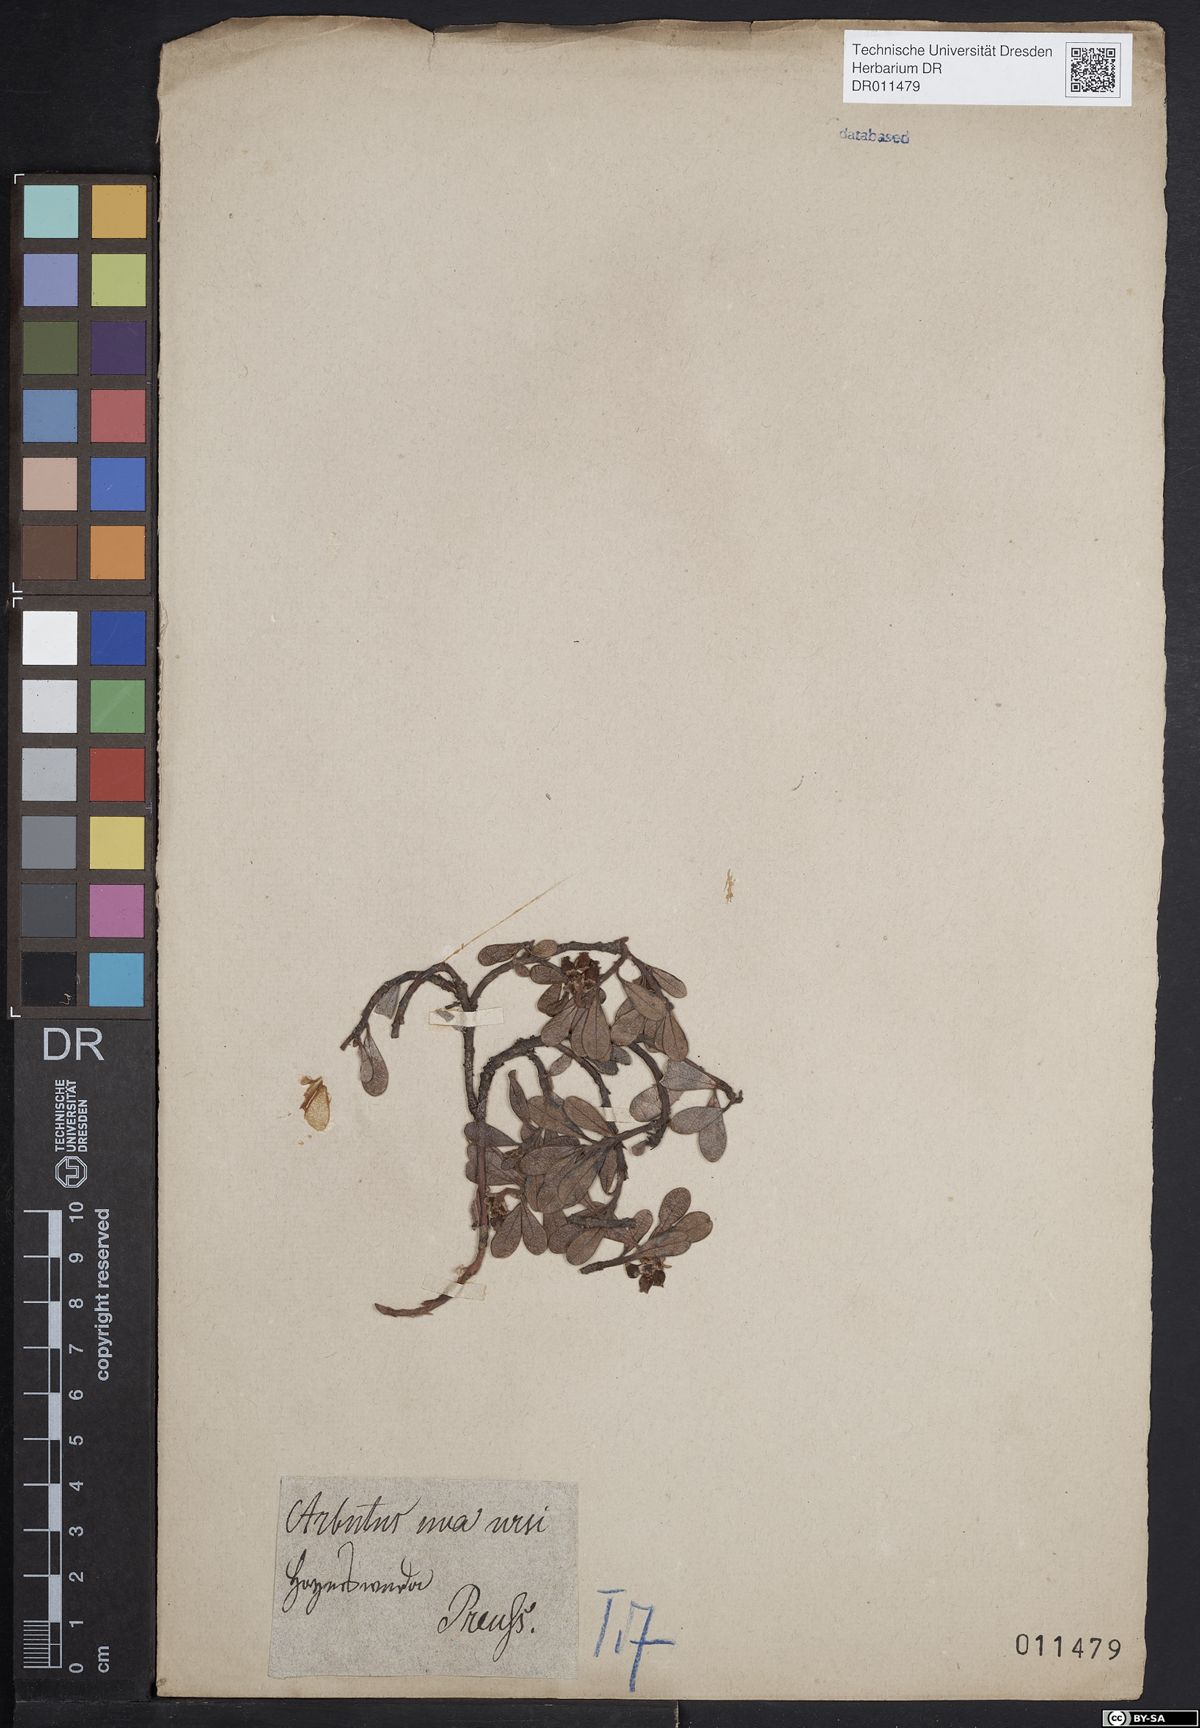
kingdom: Plantae
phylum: Tracheophyta
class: Magnoliopsida
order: Ericales
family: Ericaceae
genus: Arctostaphylos
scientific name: Arctostaphylos uva-ursi
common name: Bearberry
